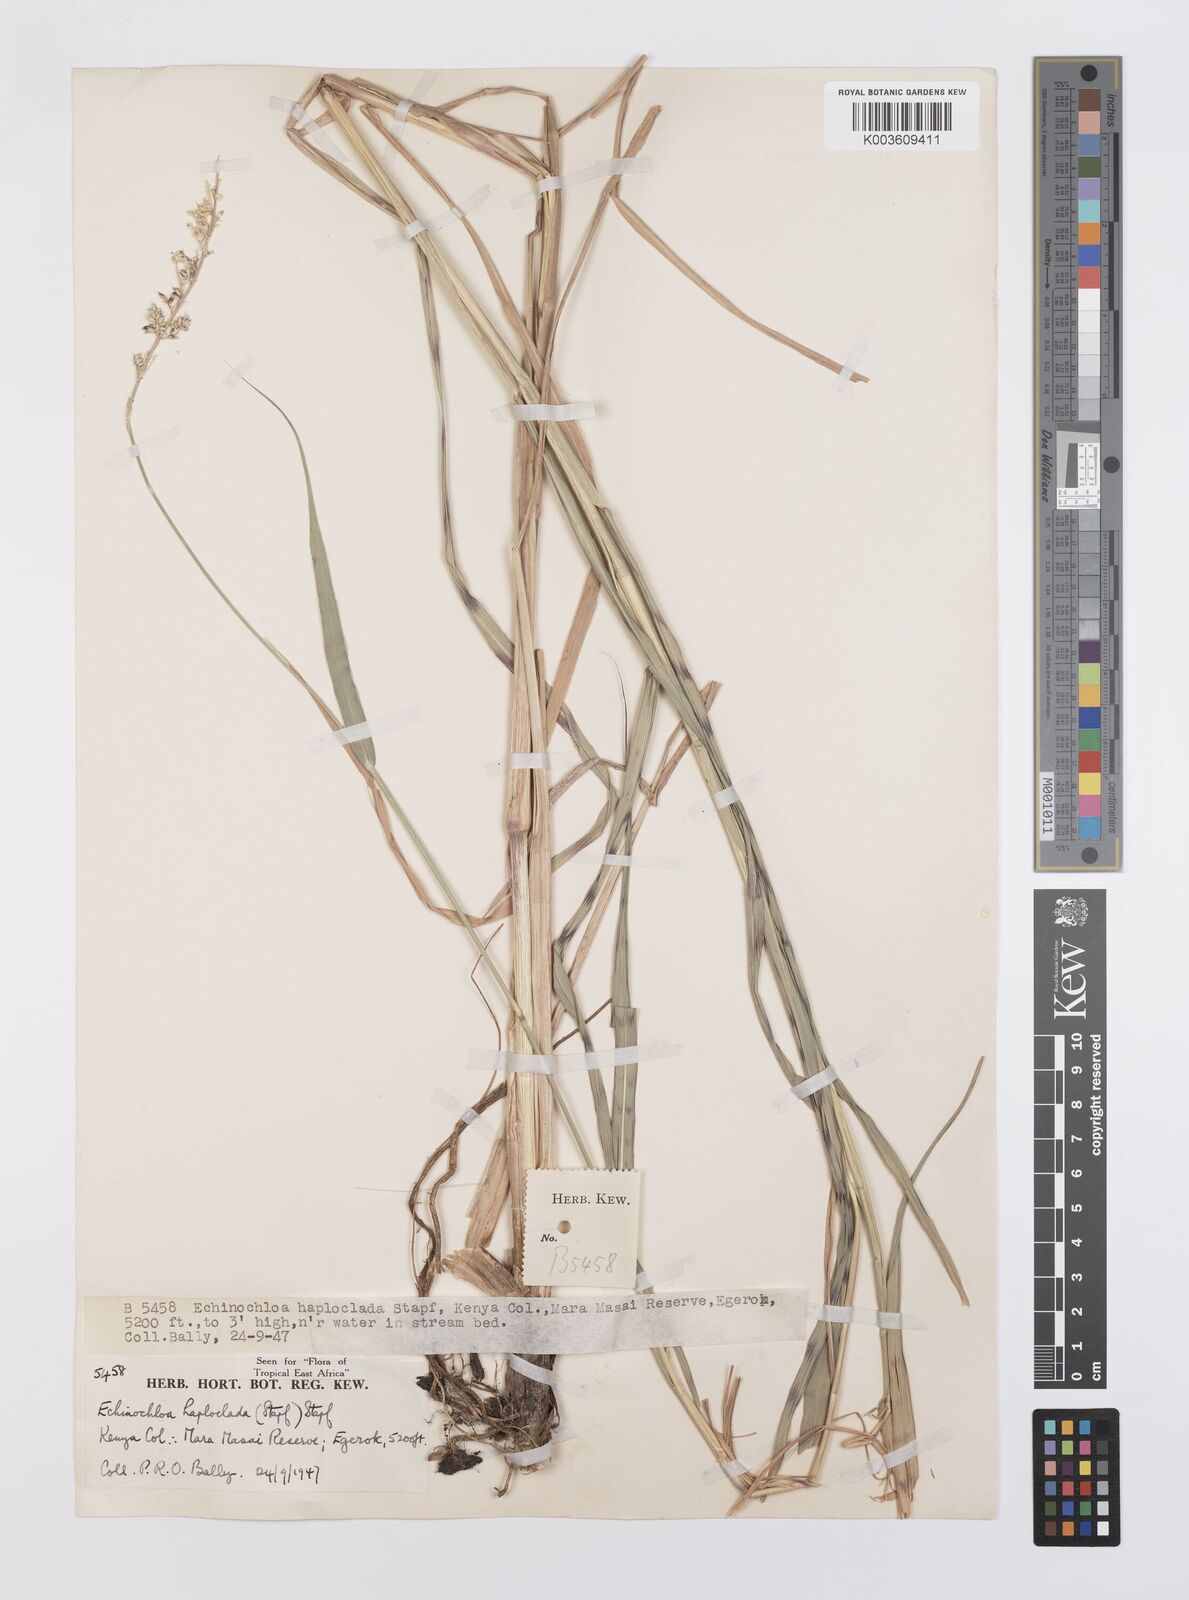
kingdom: Plantae
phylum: Tracheophyta
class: Liliopsida
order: Poales
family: Poaceae
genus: Echinochloa
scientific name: Echinochloa haploclada
